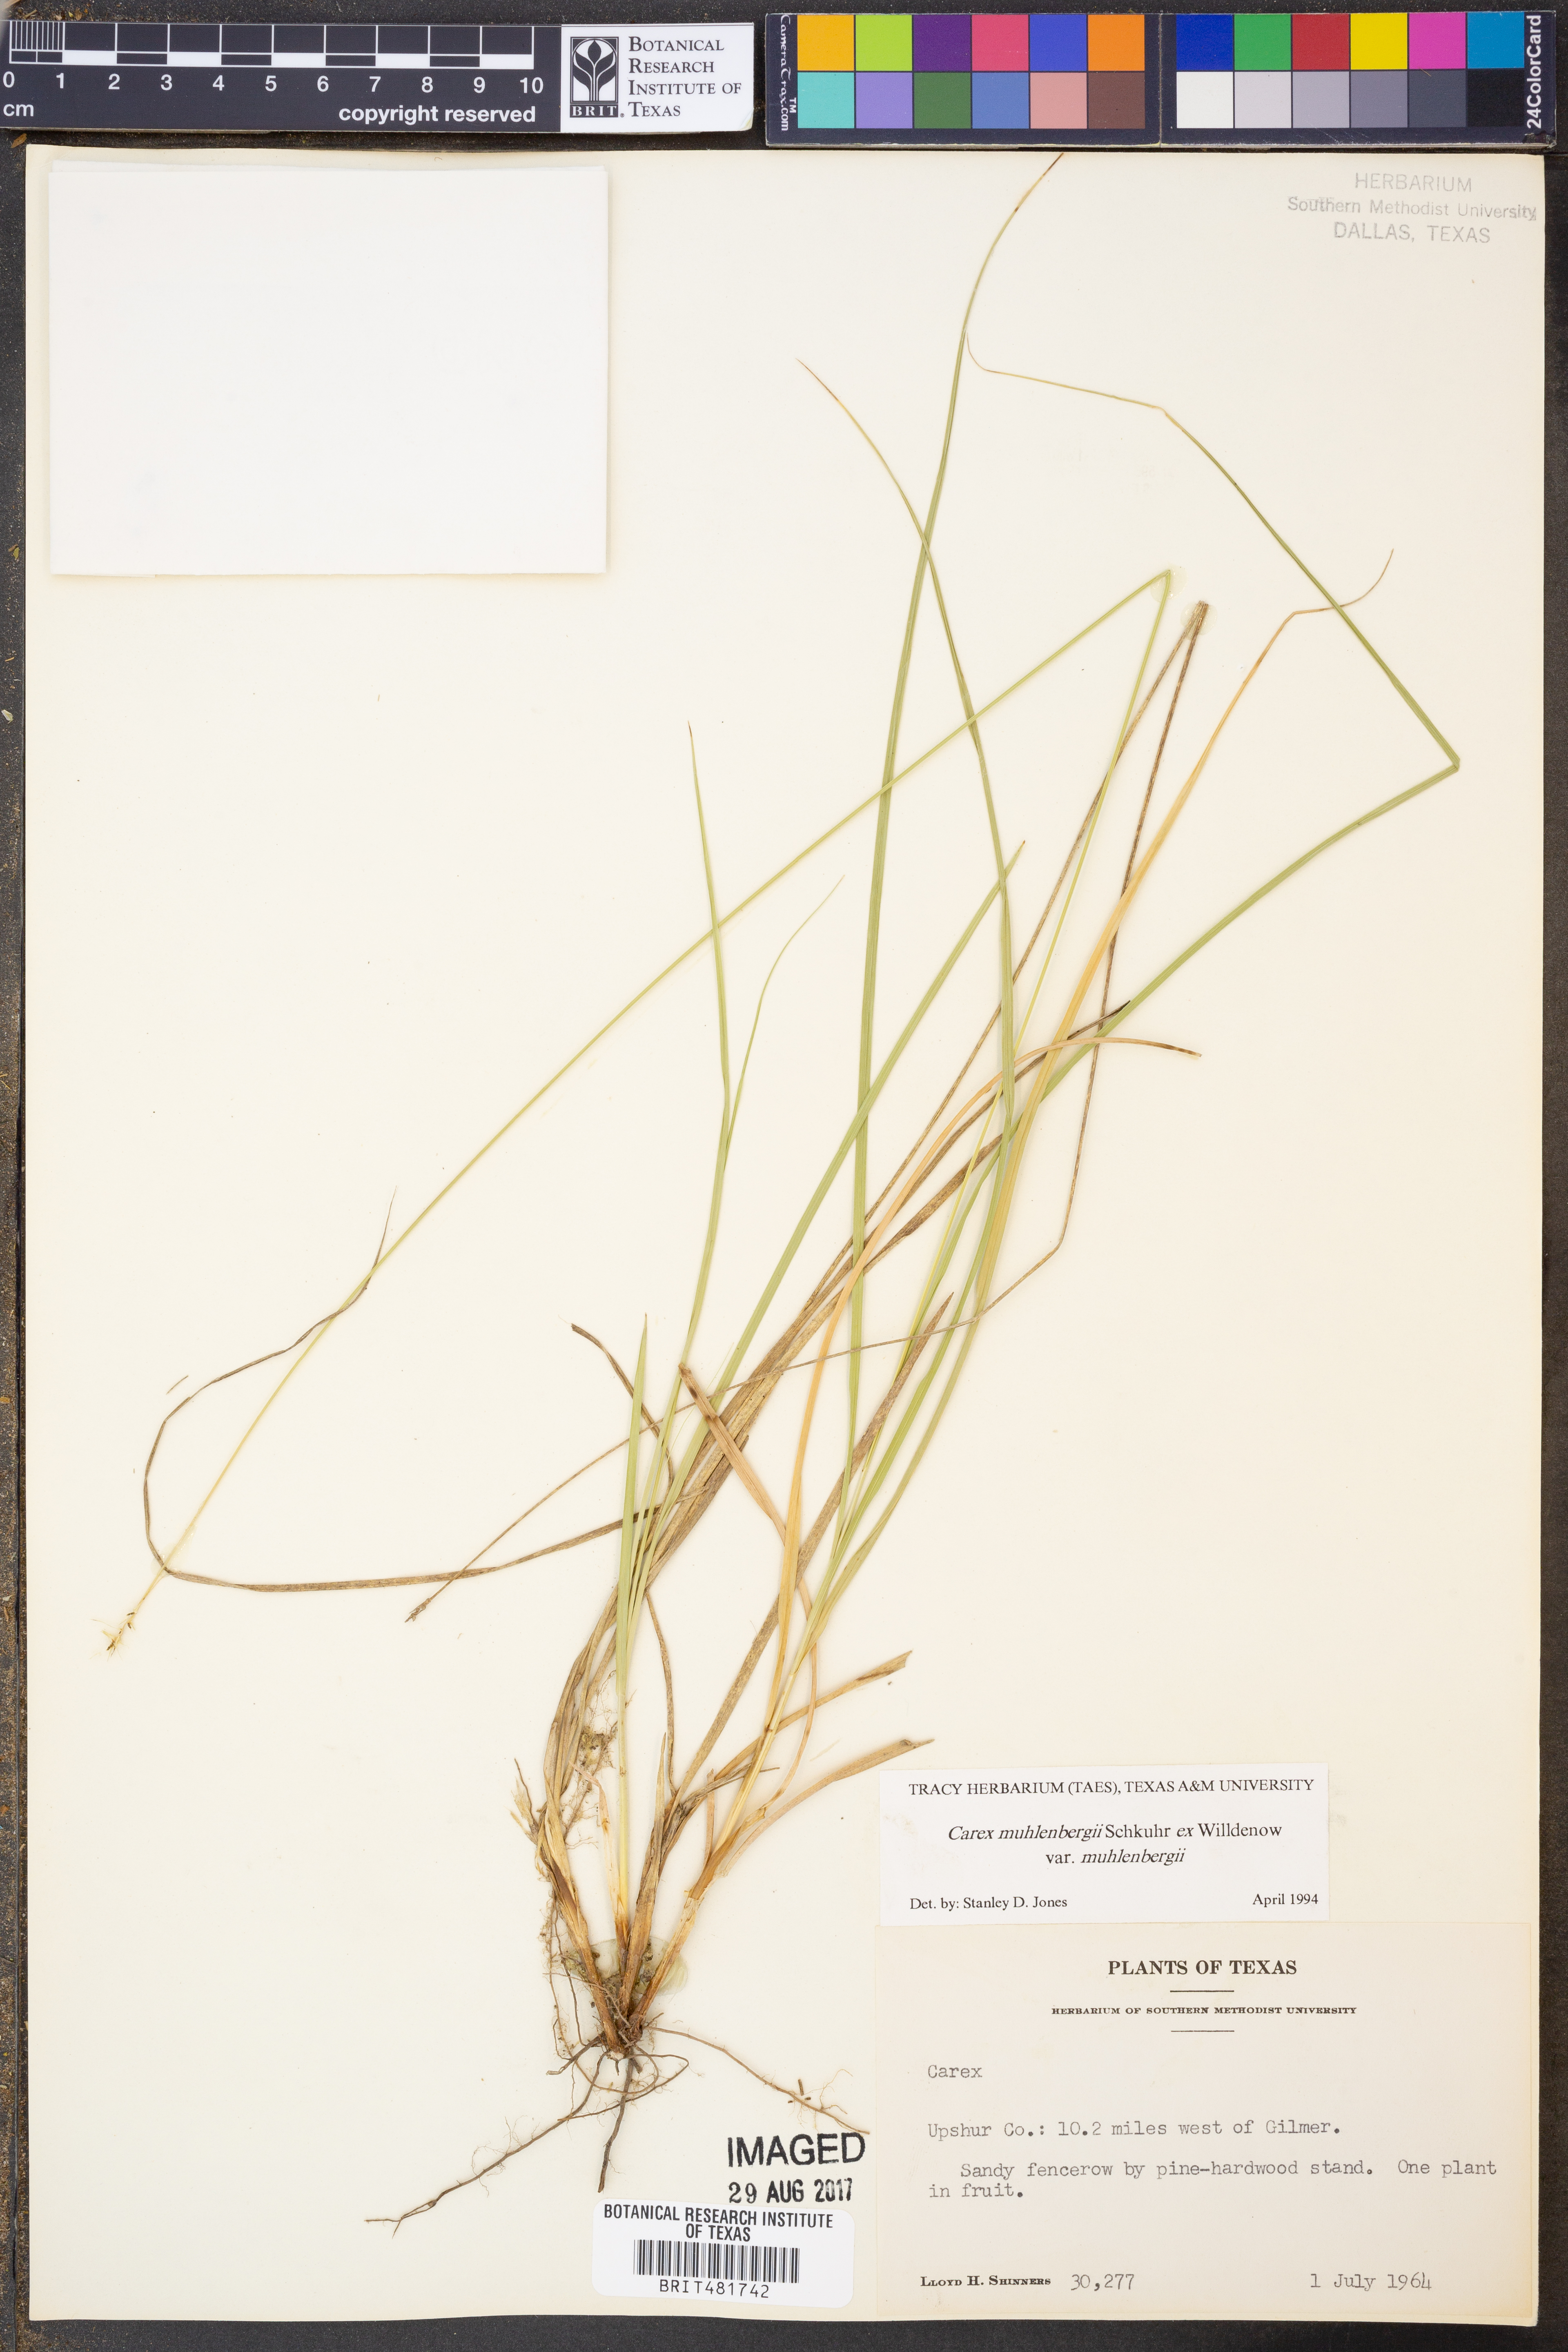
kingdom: Plantae
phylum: Tracheophyta
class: Liliopsida
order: Poales
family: Cyperaceae
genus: Carex
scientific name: Carex muehlenbergii
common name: Muhlenberg's bracted sedge
